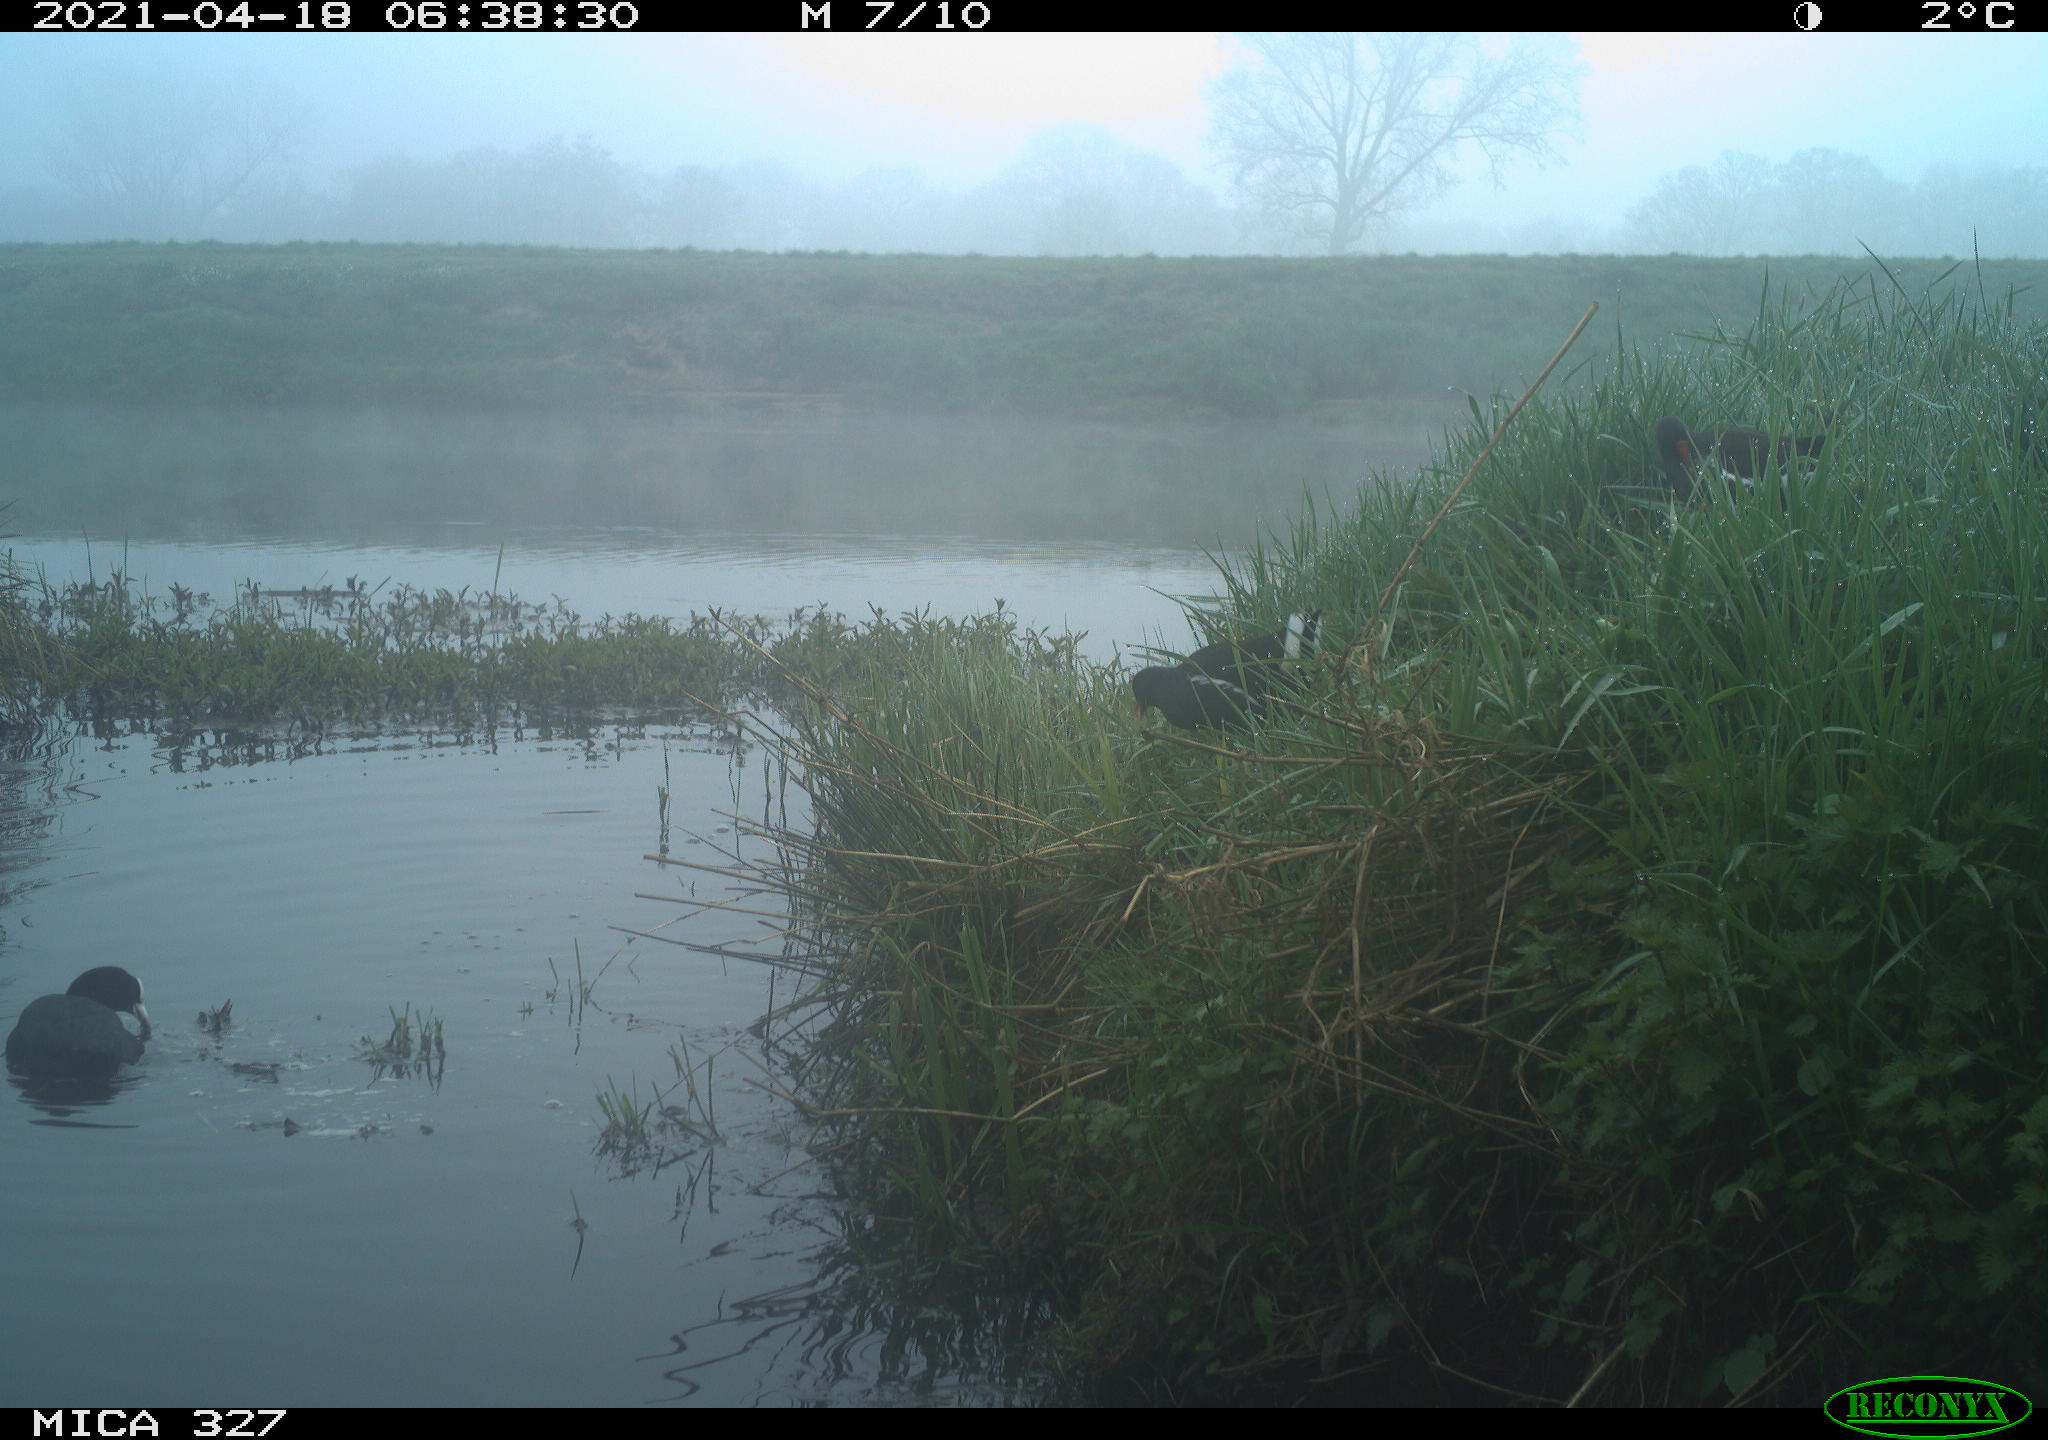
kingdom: Animalia
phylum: Chordata
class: Aves
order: Gruiformes
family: Rallidae
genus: Fulica
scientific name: Fulica atra
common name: Eurasian coot
